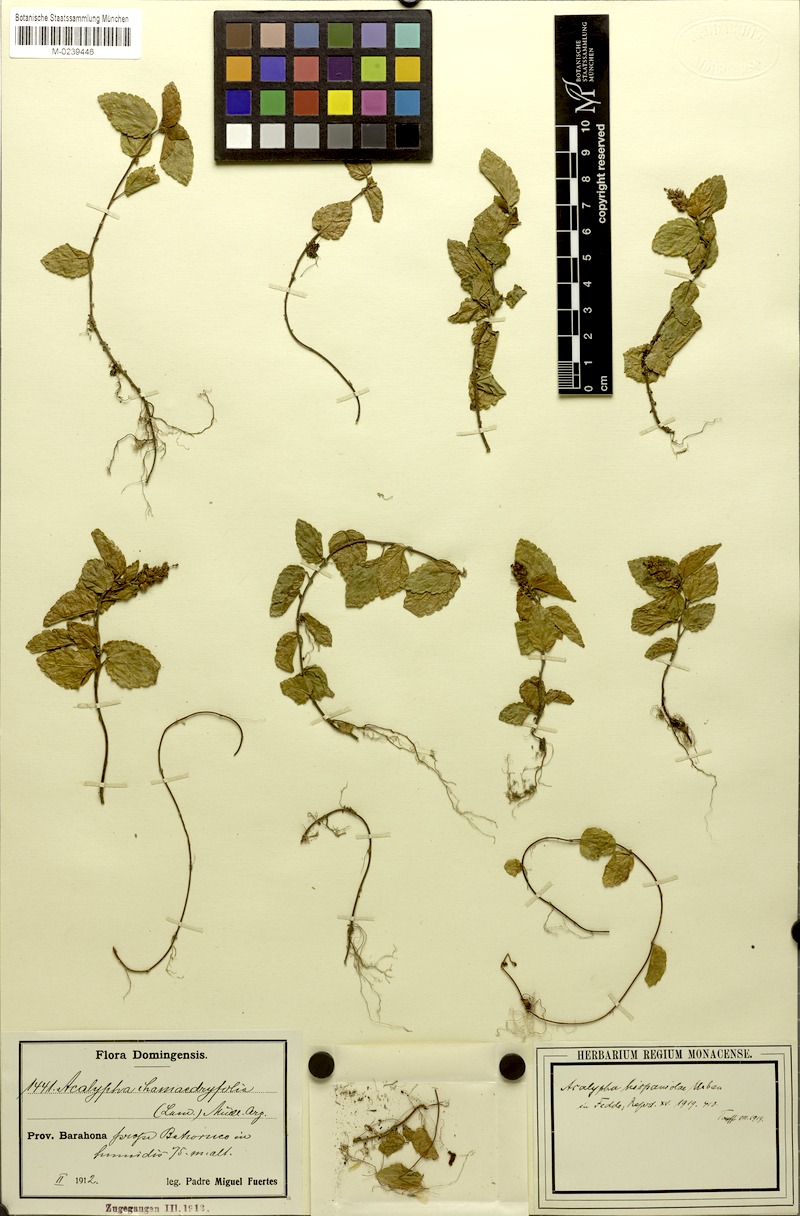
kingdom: Plantae
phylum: Tracheophyta
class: Magnoliopsida
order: Malpighiales
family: Euphorbiaceae
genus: Acalypha
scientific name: Acalypha chamaedrifolia
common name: Bastard copperleaf
